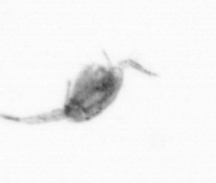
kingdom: Animalia
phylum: Arthropoda
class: Copepoda
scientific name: Copepoda
